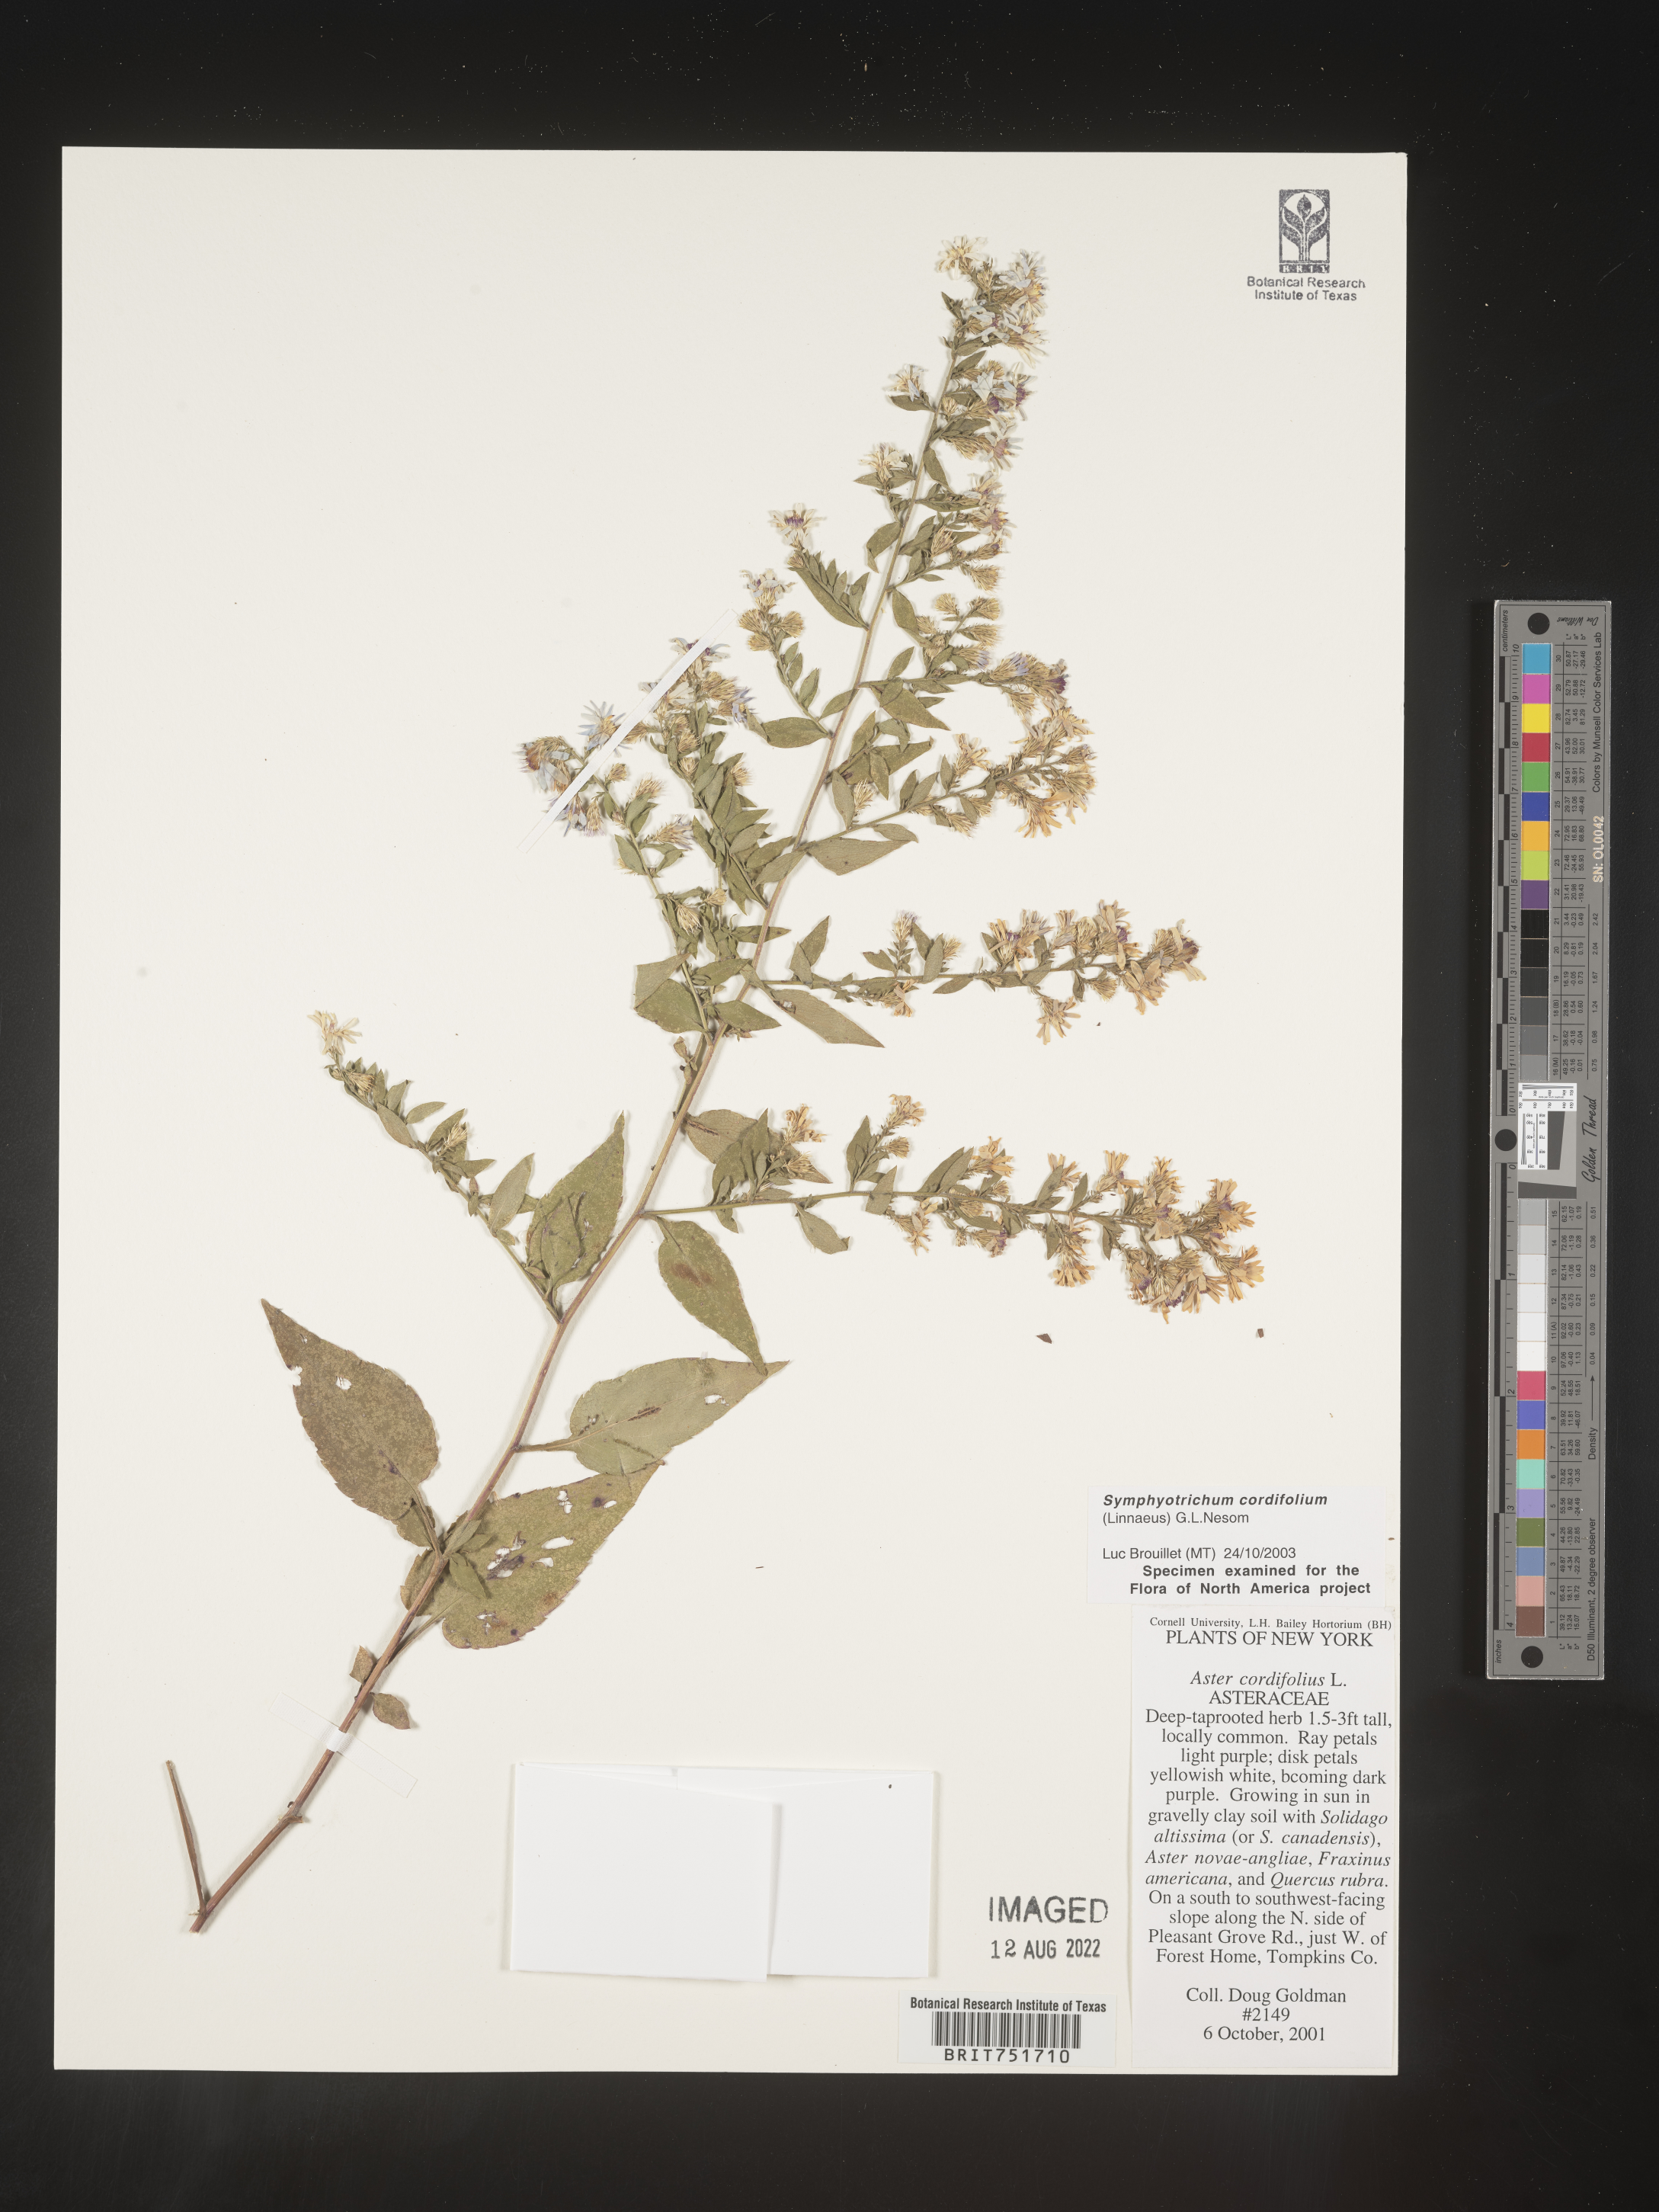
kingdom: Plantae
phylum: Tracheophyta
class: Magnoliopsida
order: Asterales
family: Asteraceae
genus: Symphyotrichum
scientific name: Symphyotrichum cordifolium
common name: Beeweed
